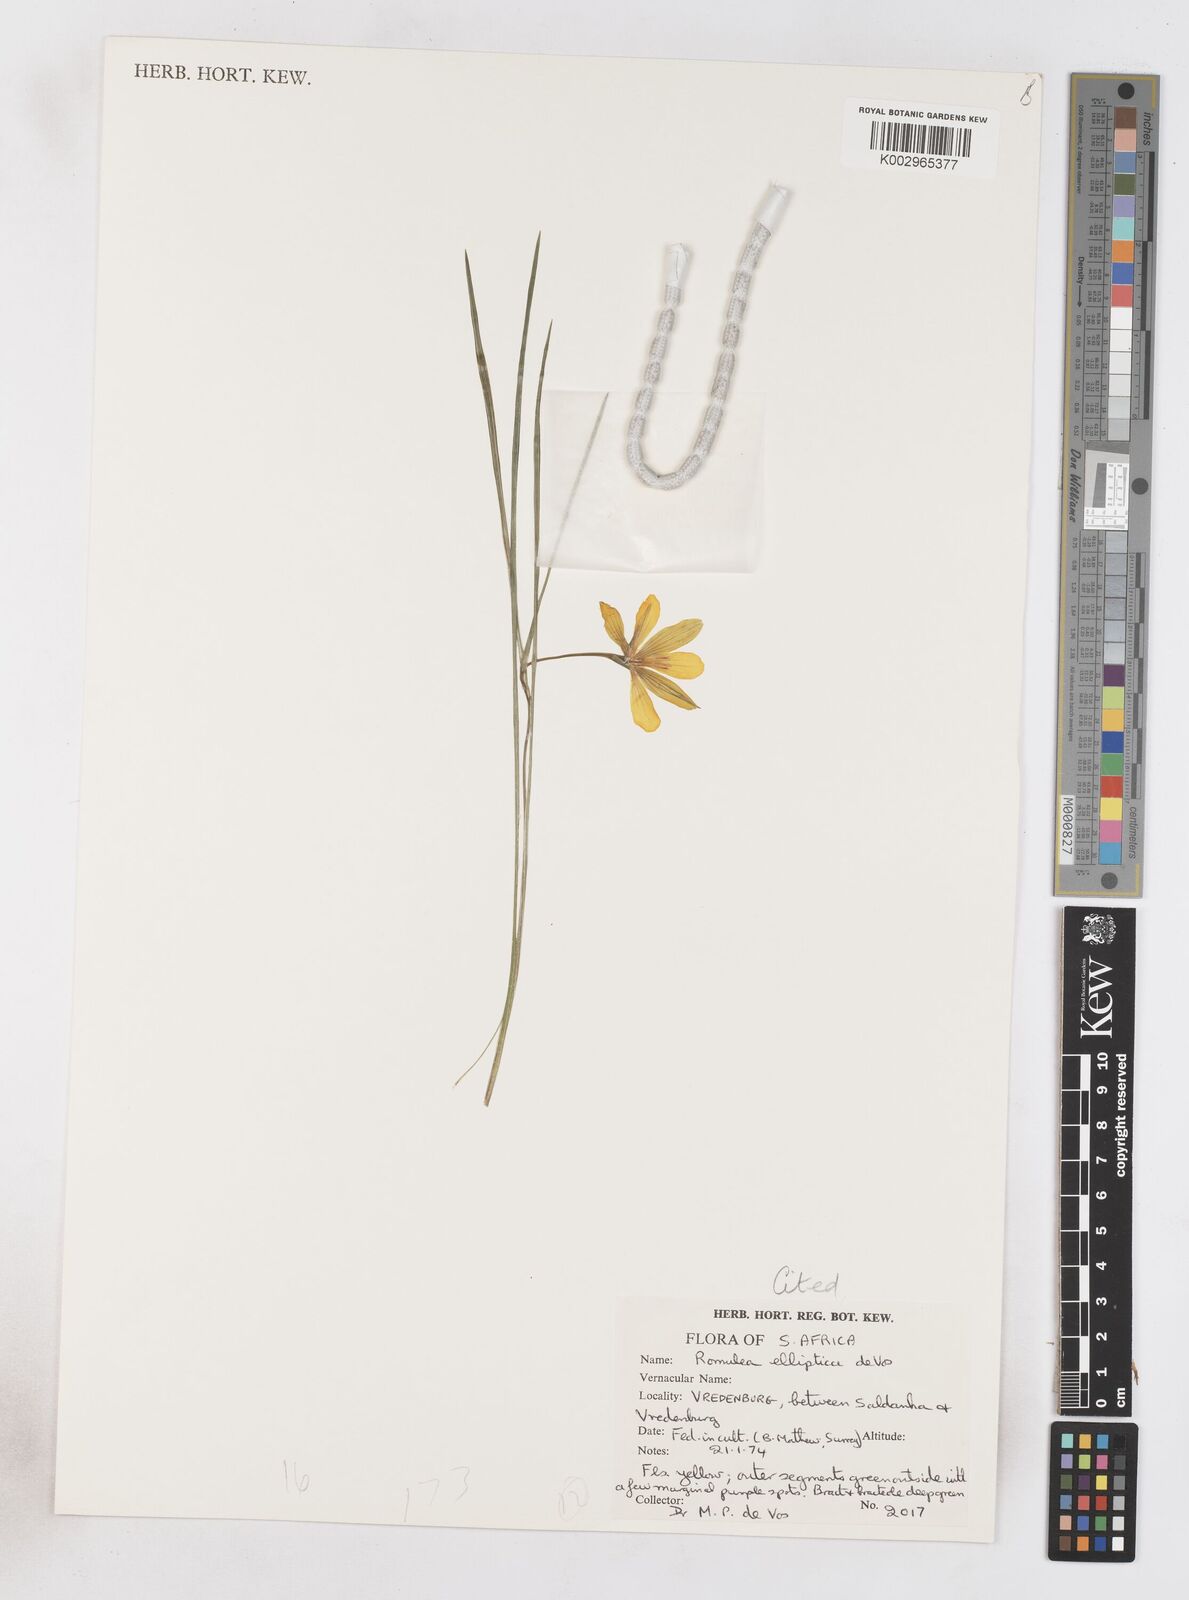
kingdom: Plantae
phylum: Tracheophyta
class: Liliopsida
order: Asparagales
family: Iridaceae
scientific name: Iridaceae
